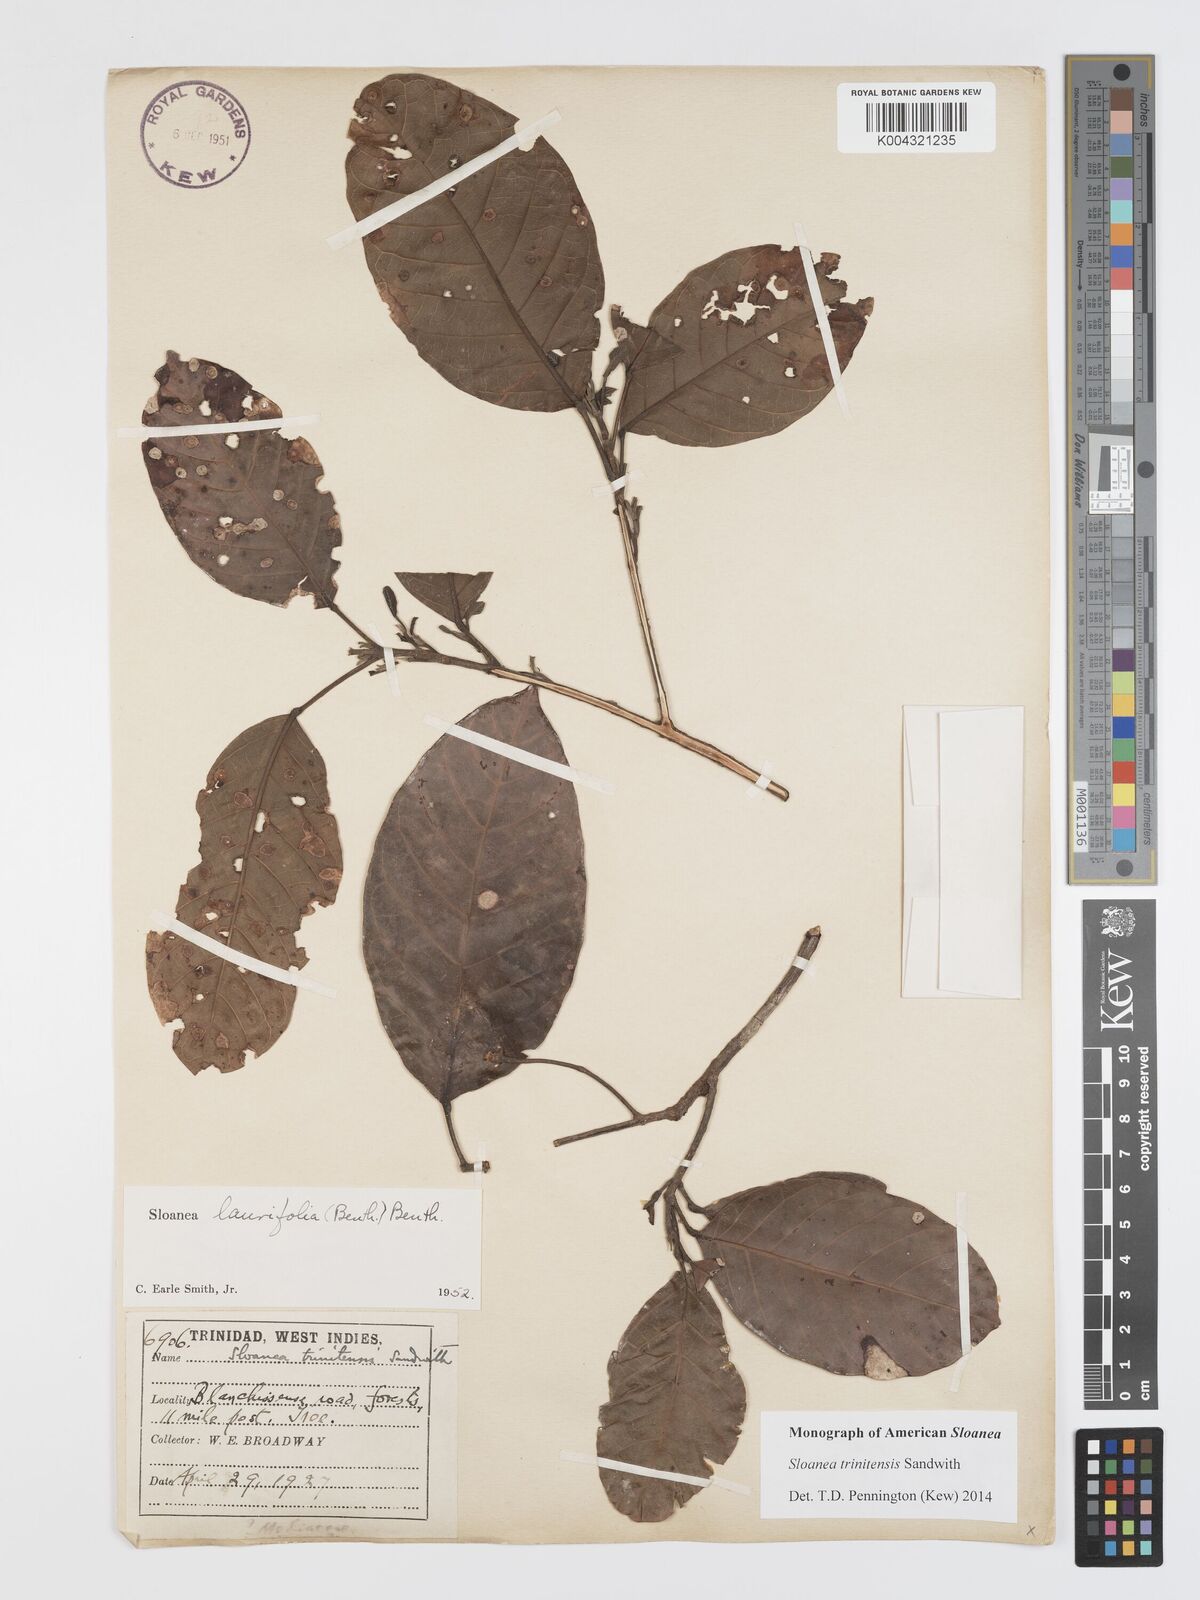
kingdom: Plantae
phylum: Tracheophyta
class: Magnoliopsida
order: Oxalidales
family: Elaeocarpaceae
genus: Sloanea
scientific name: Sloanea laurifolia
